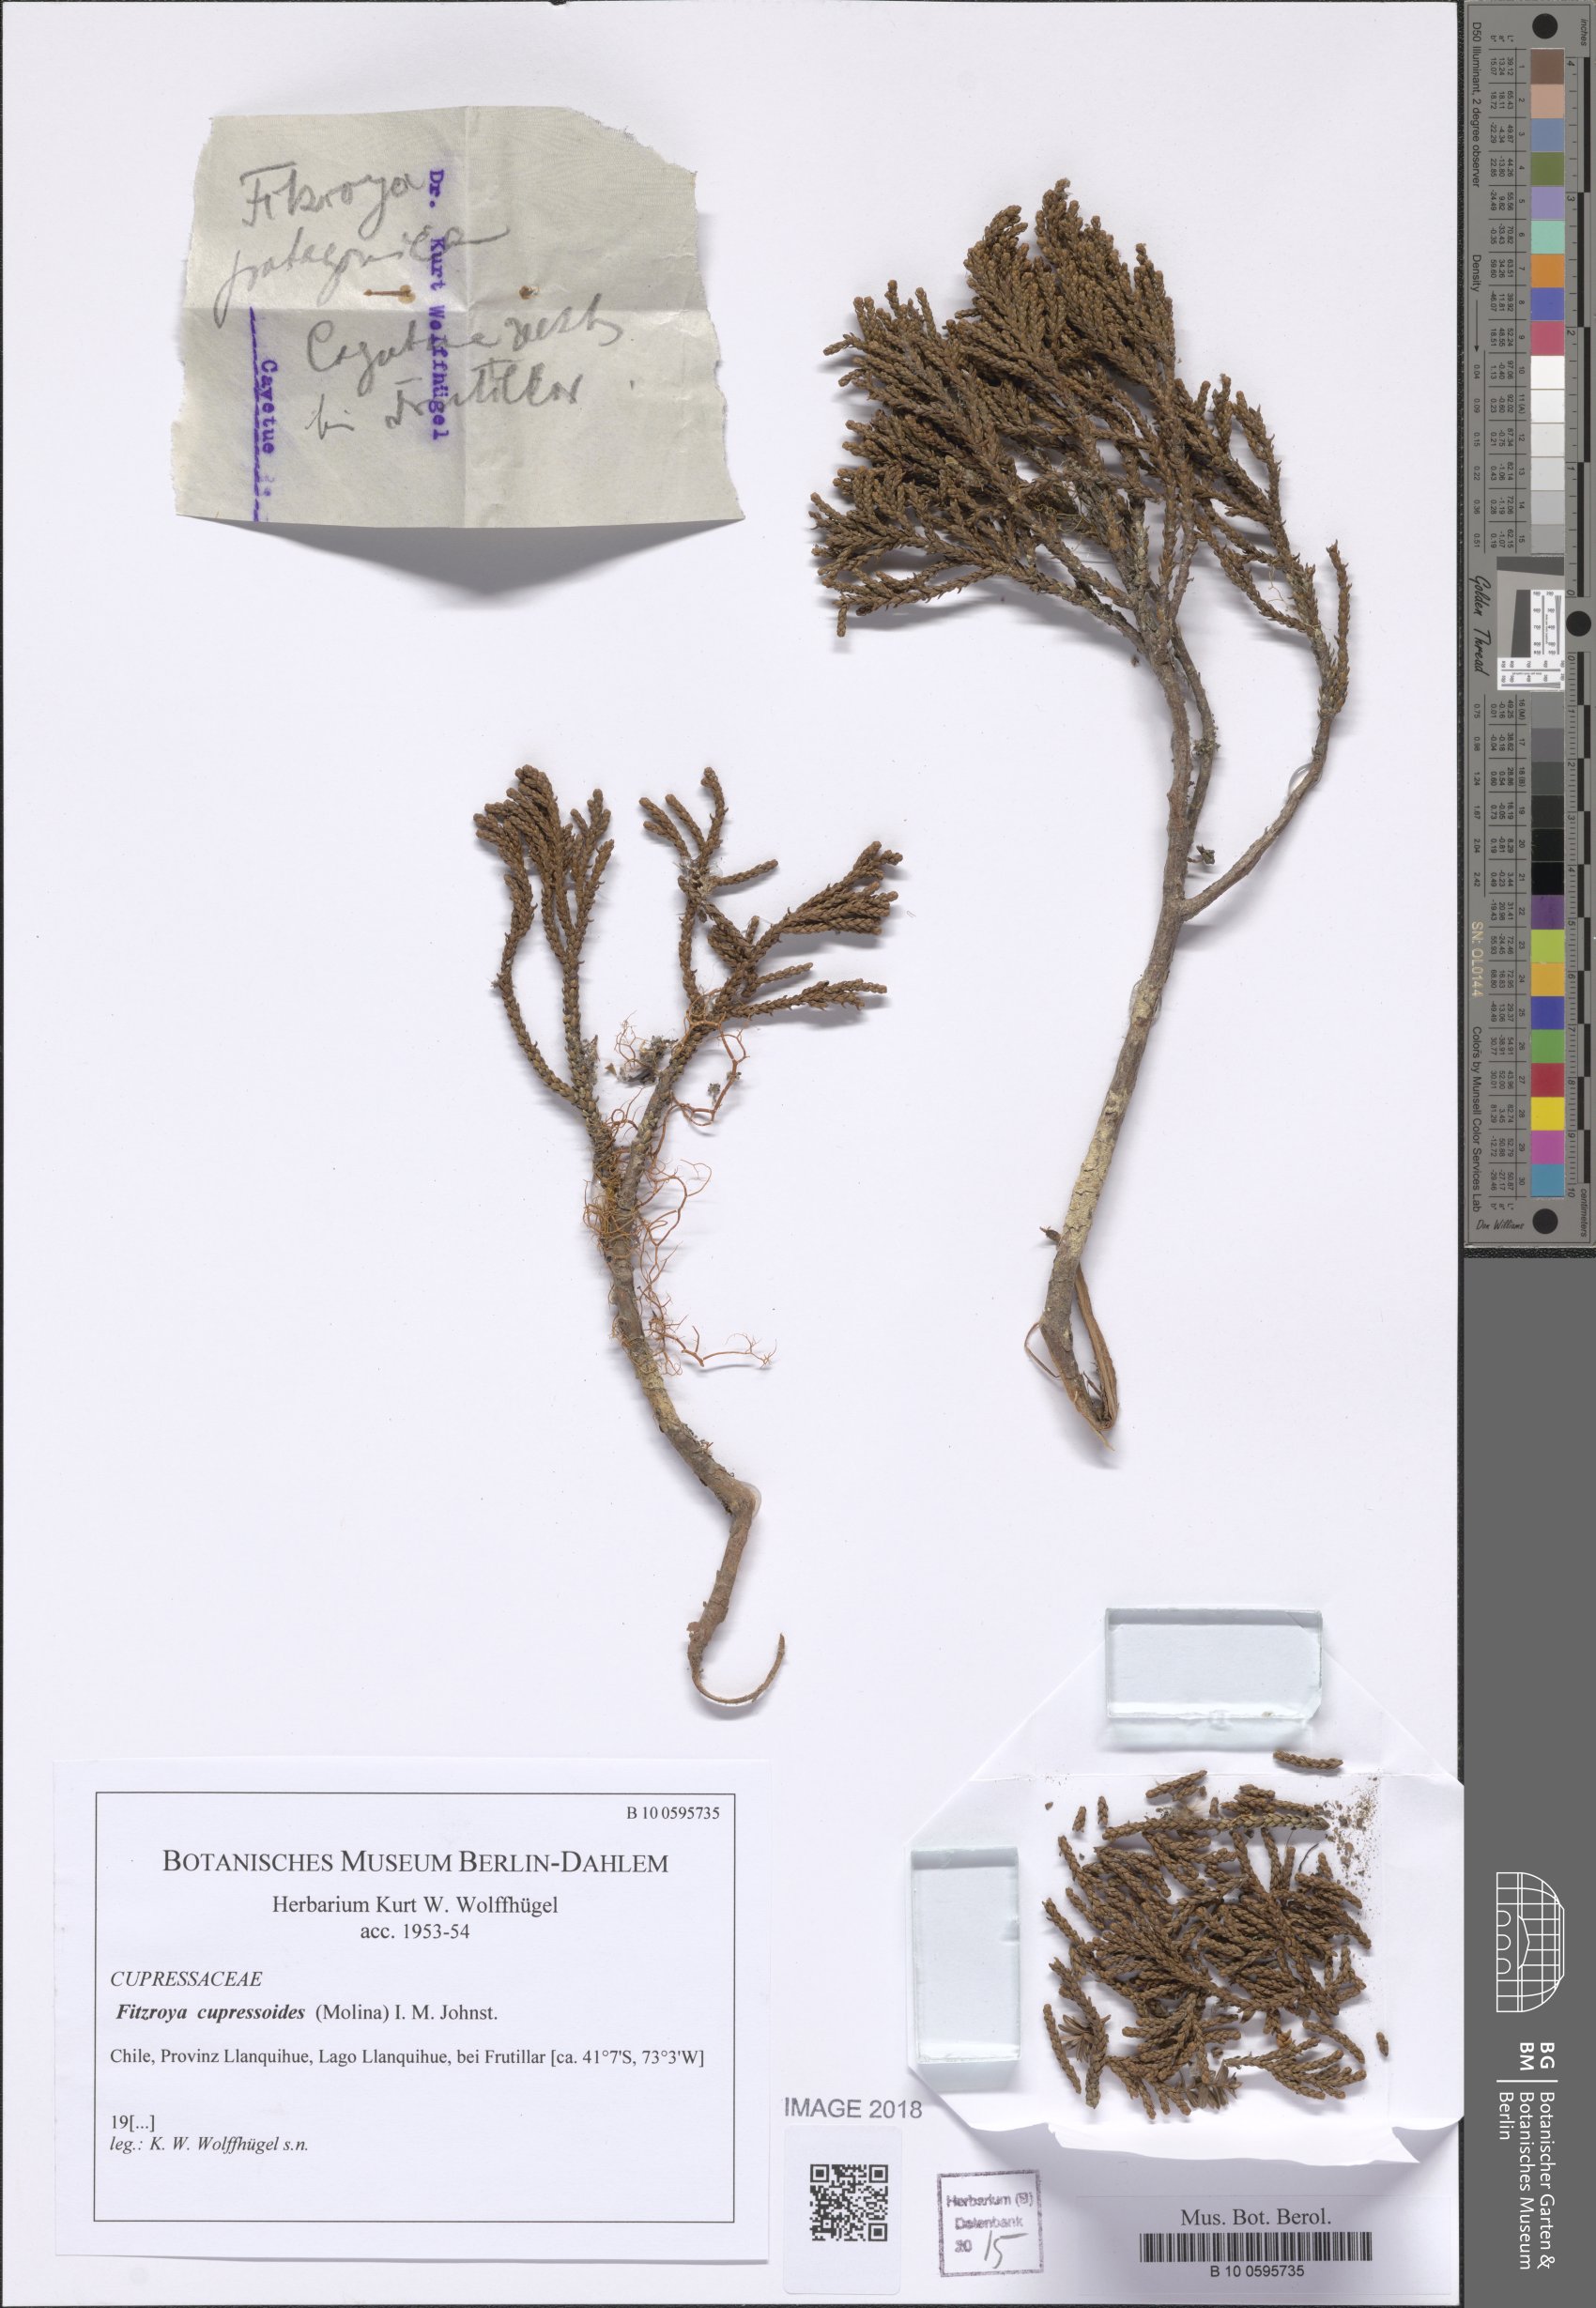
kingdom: Plantae
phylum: Tracheophyta
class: Pinopsida
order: Pinales
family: Cupressaceae
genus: Fitzroya
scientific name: Fitzroya cupressoides
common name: Patagonian cypress
